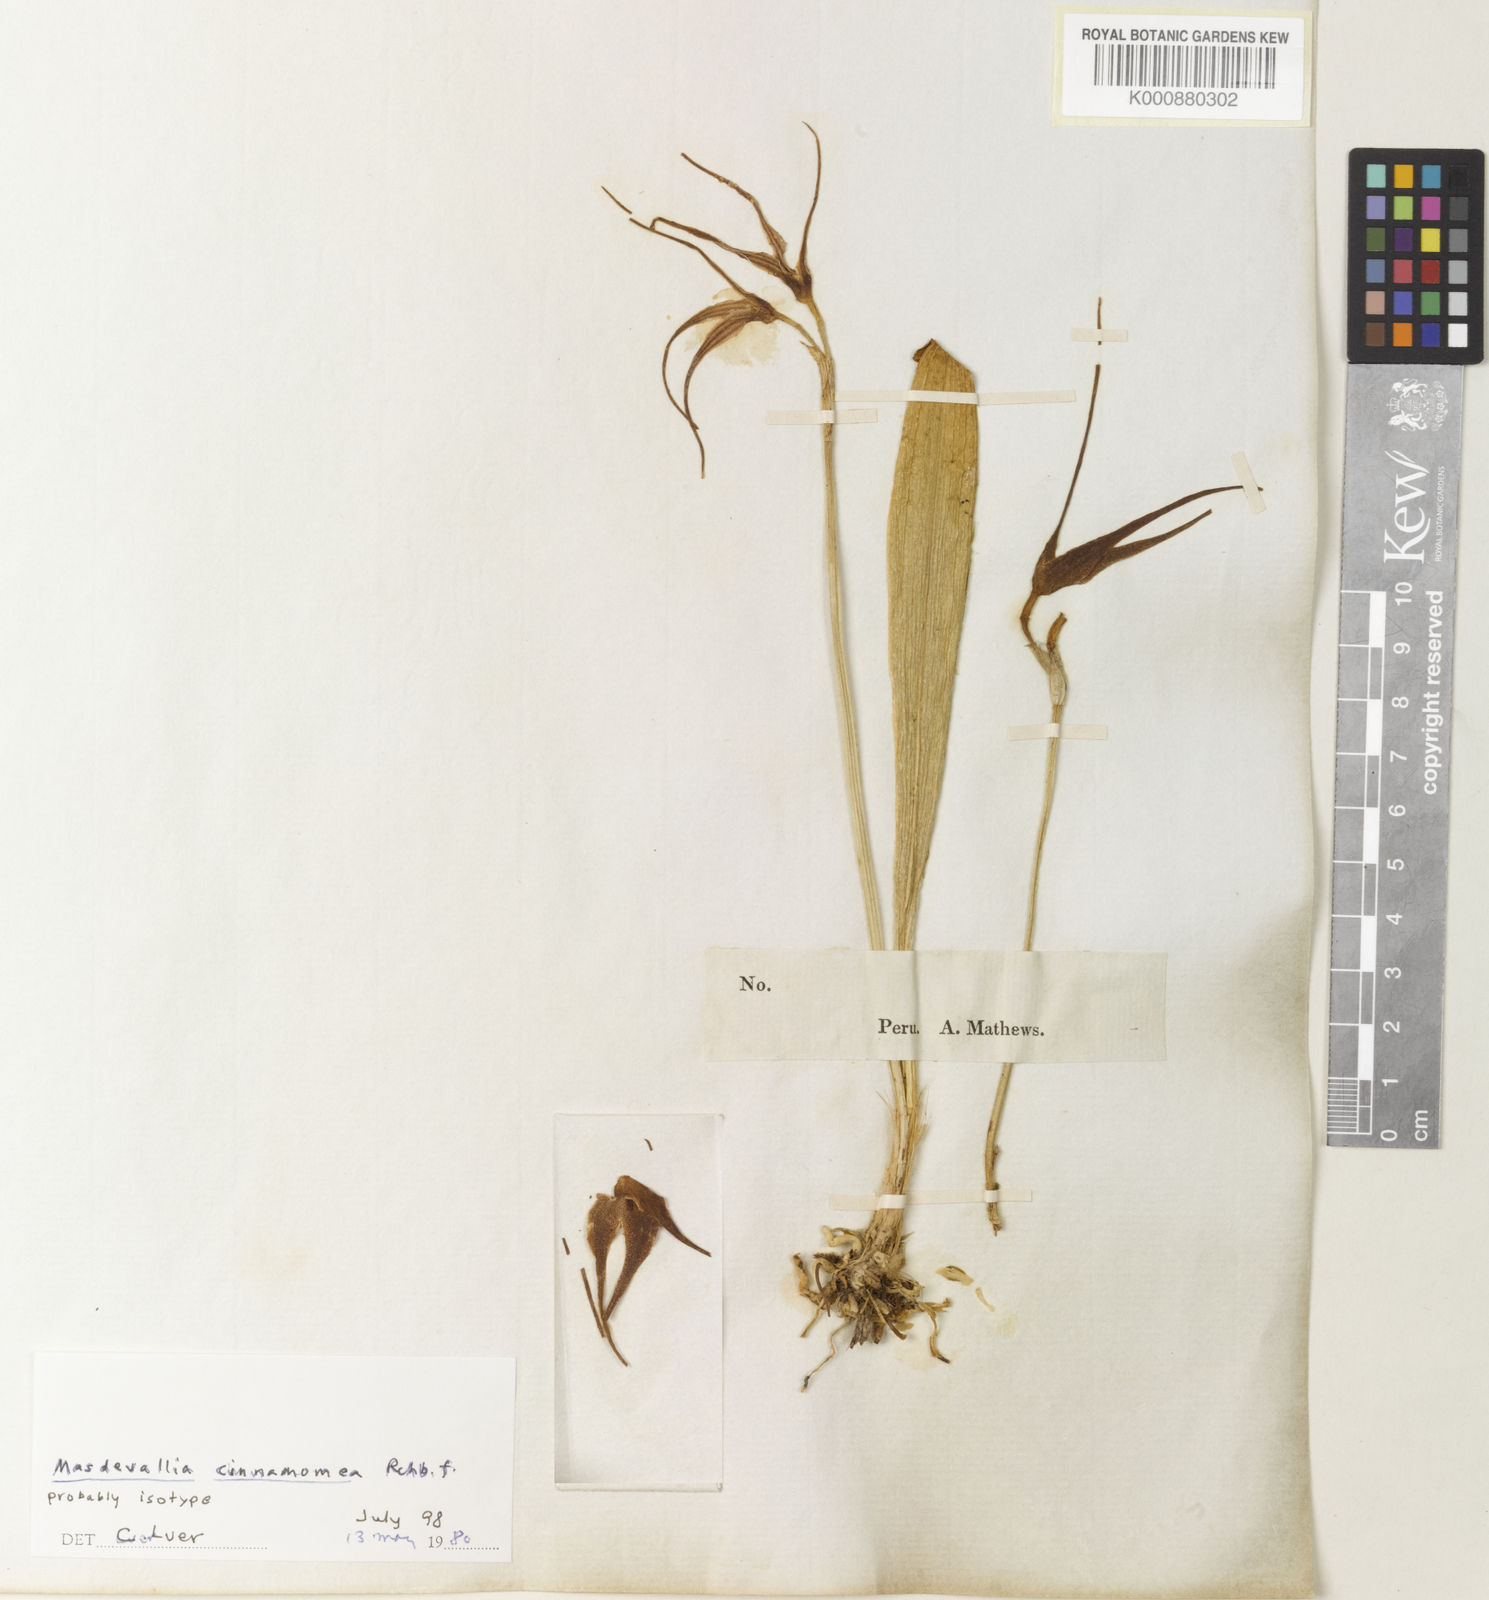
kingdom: Plantae
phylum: Tracheophyta
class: Liliopsida
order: Asparagales
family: Orchidaceae
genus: Masdevallia
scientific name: Masdevallia cinnamomea
